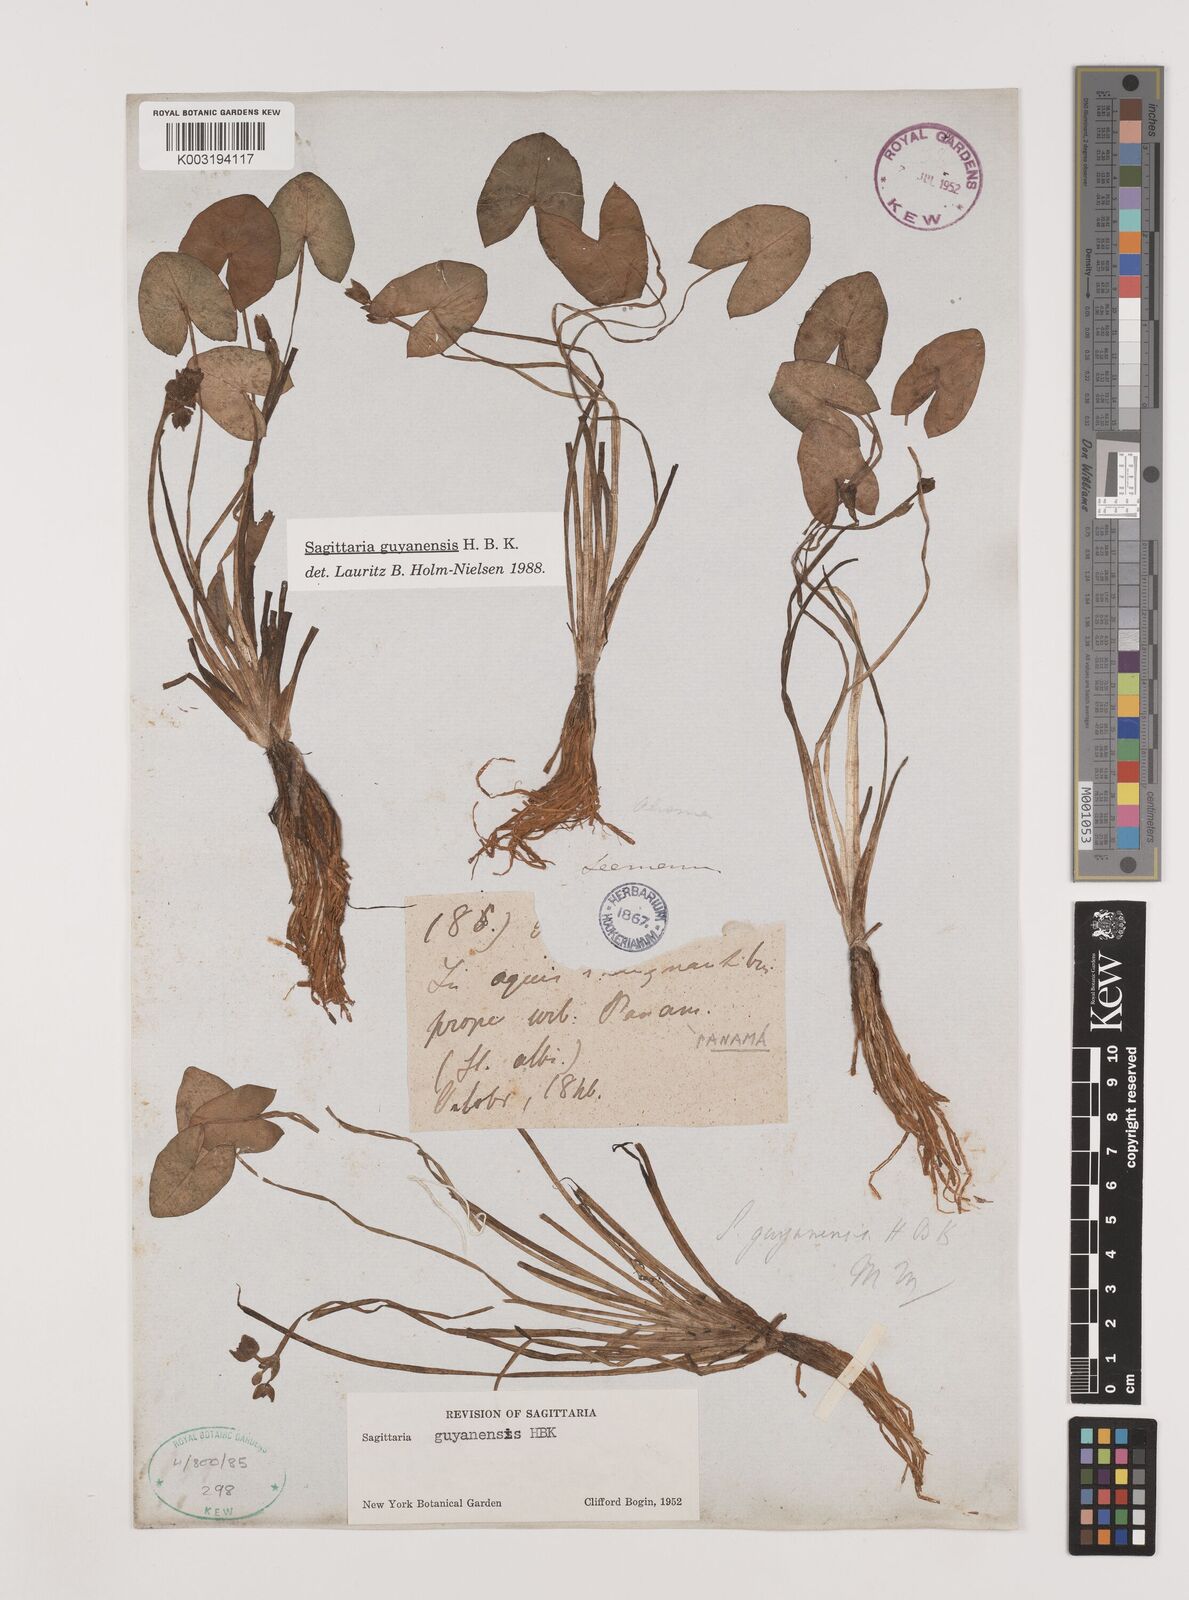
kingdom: Plantae
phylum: Tracheophyta
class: Liliopsida
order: Alismatales
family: Alismataceae
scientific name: Alismataceae
